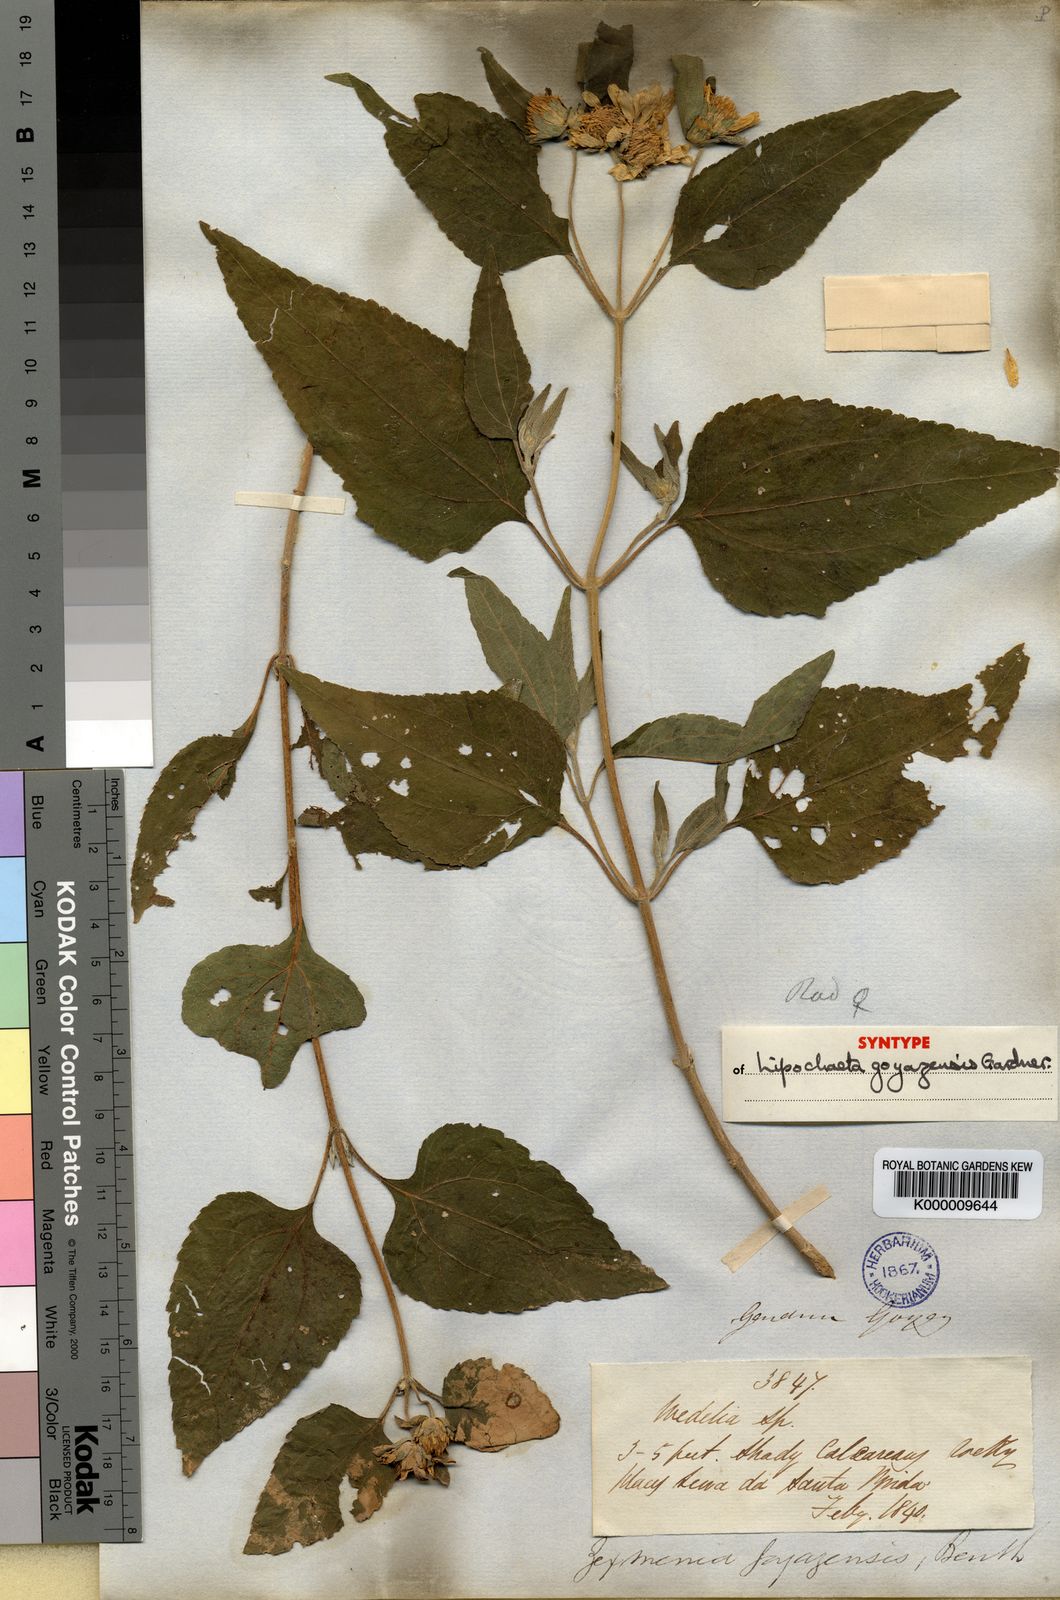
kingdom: Plantae
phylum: Tracheophyta
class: Magnoliopsida
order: Asterales
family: Asteraceae
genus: Dimerostemma
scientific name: Dimerostemma goyazense
